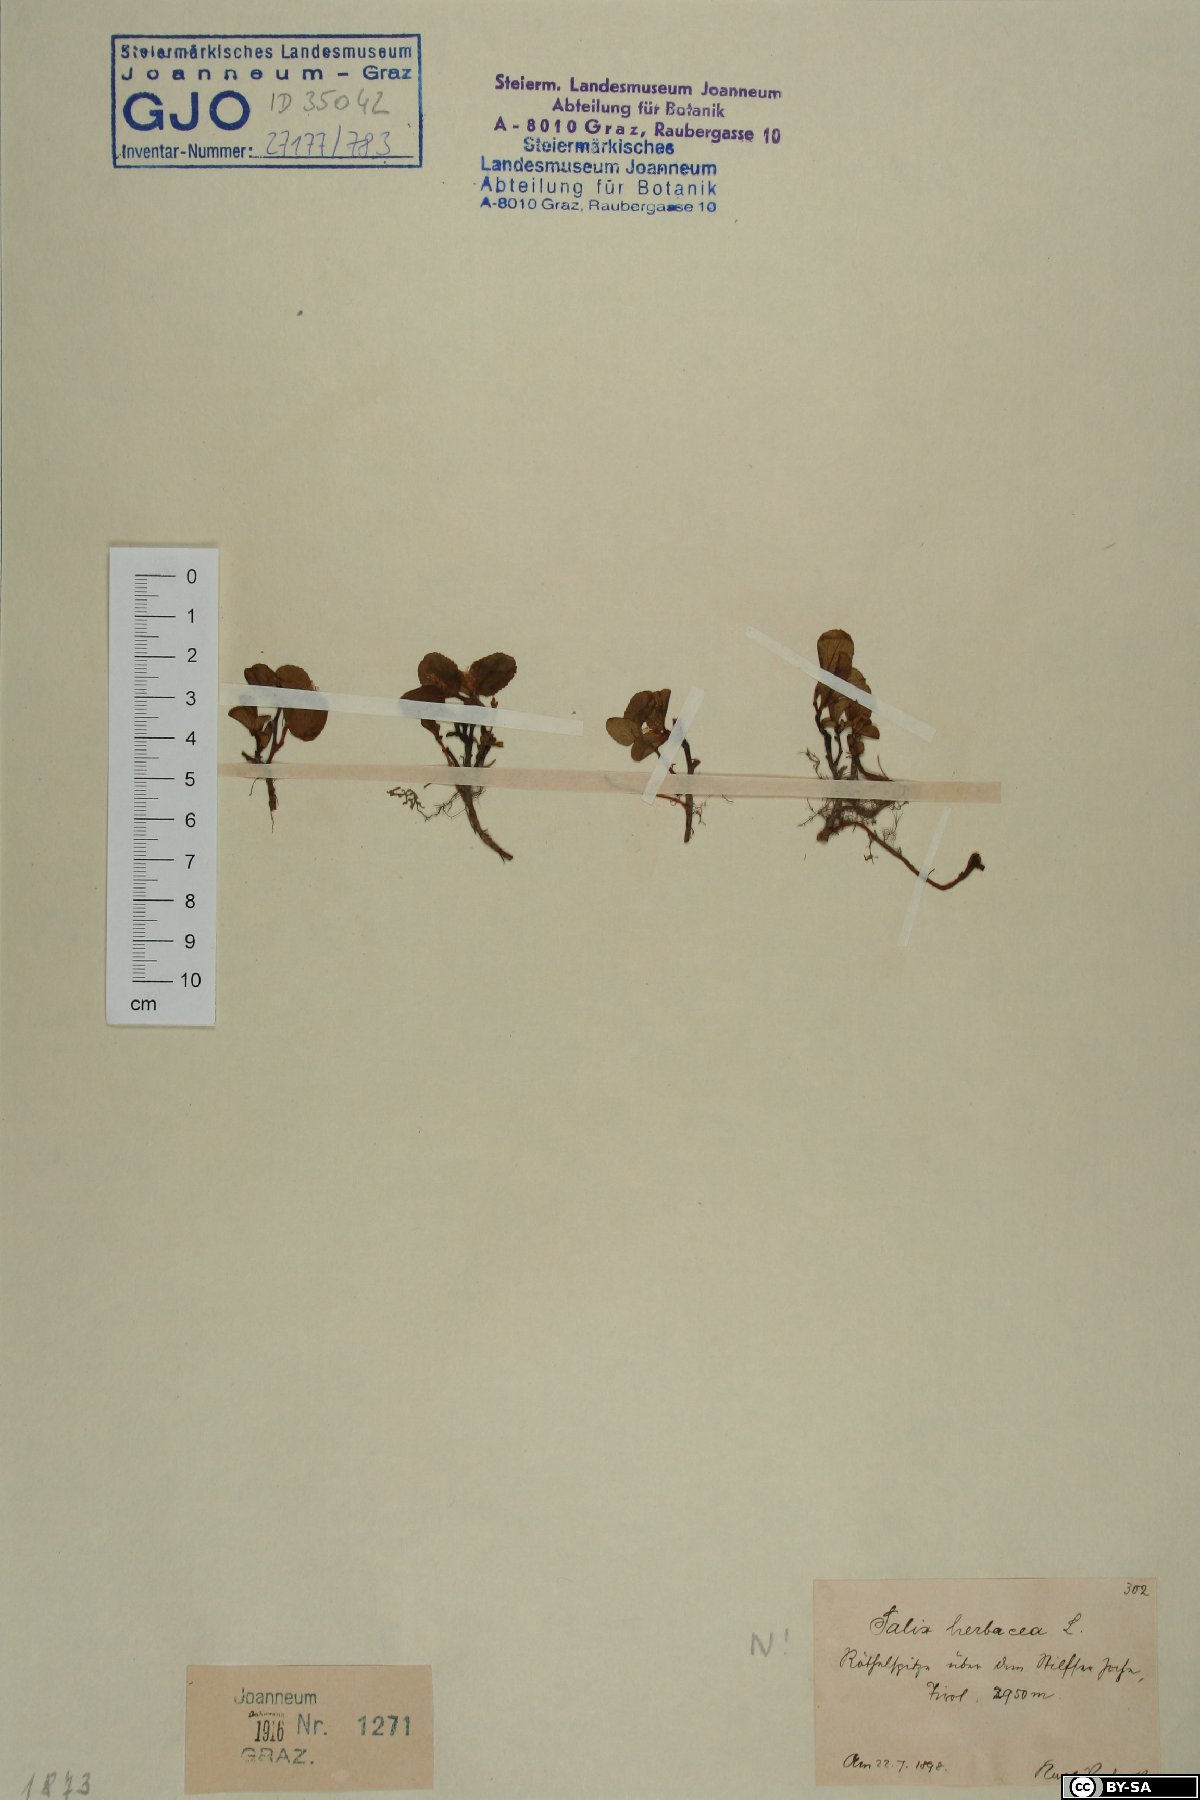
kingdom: Plantae
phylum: Tracheophyta
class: Magnoliopsida
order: Malpighiales
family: Salicaceae
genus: Salix
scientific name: Salix herbacea
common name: Dwarf willow
